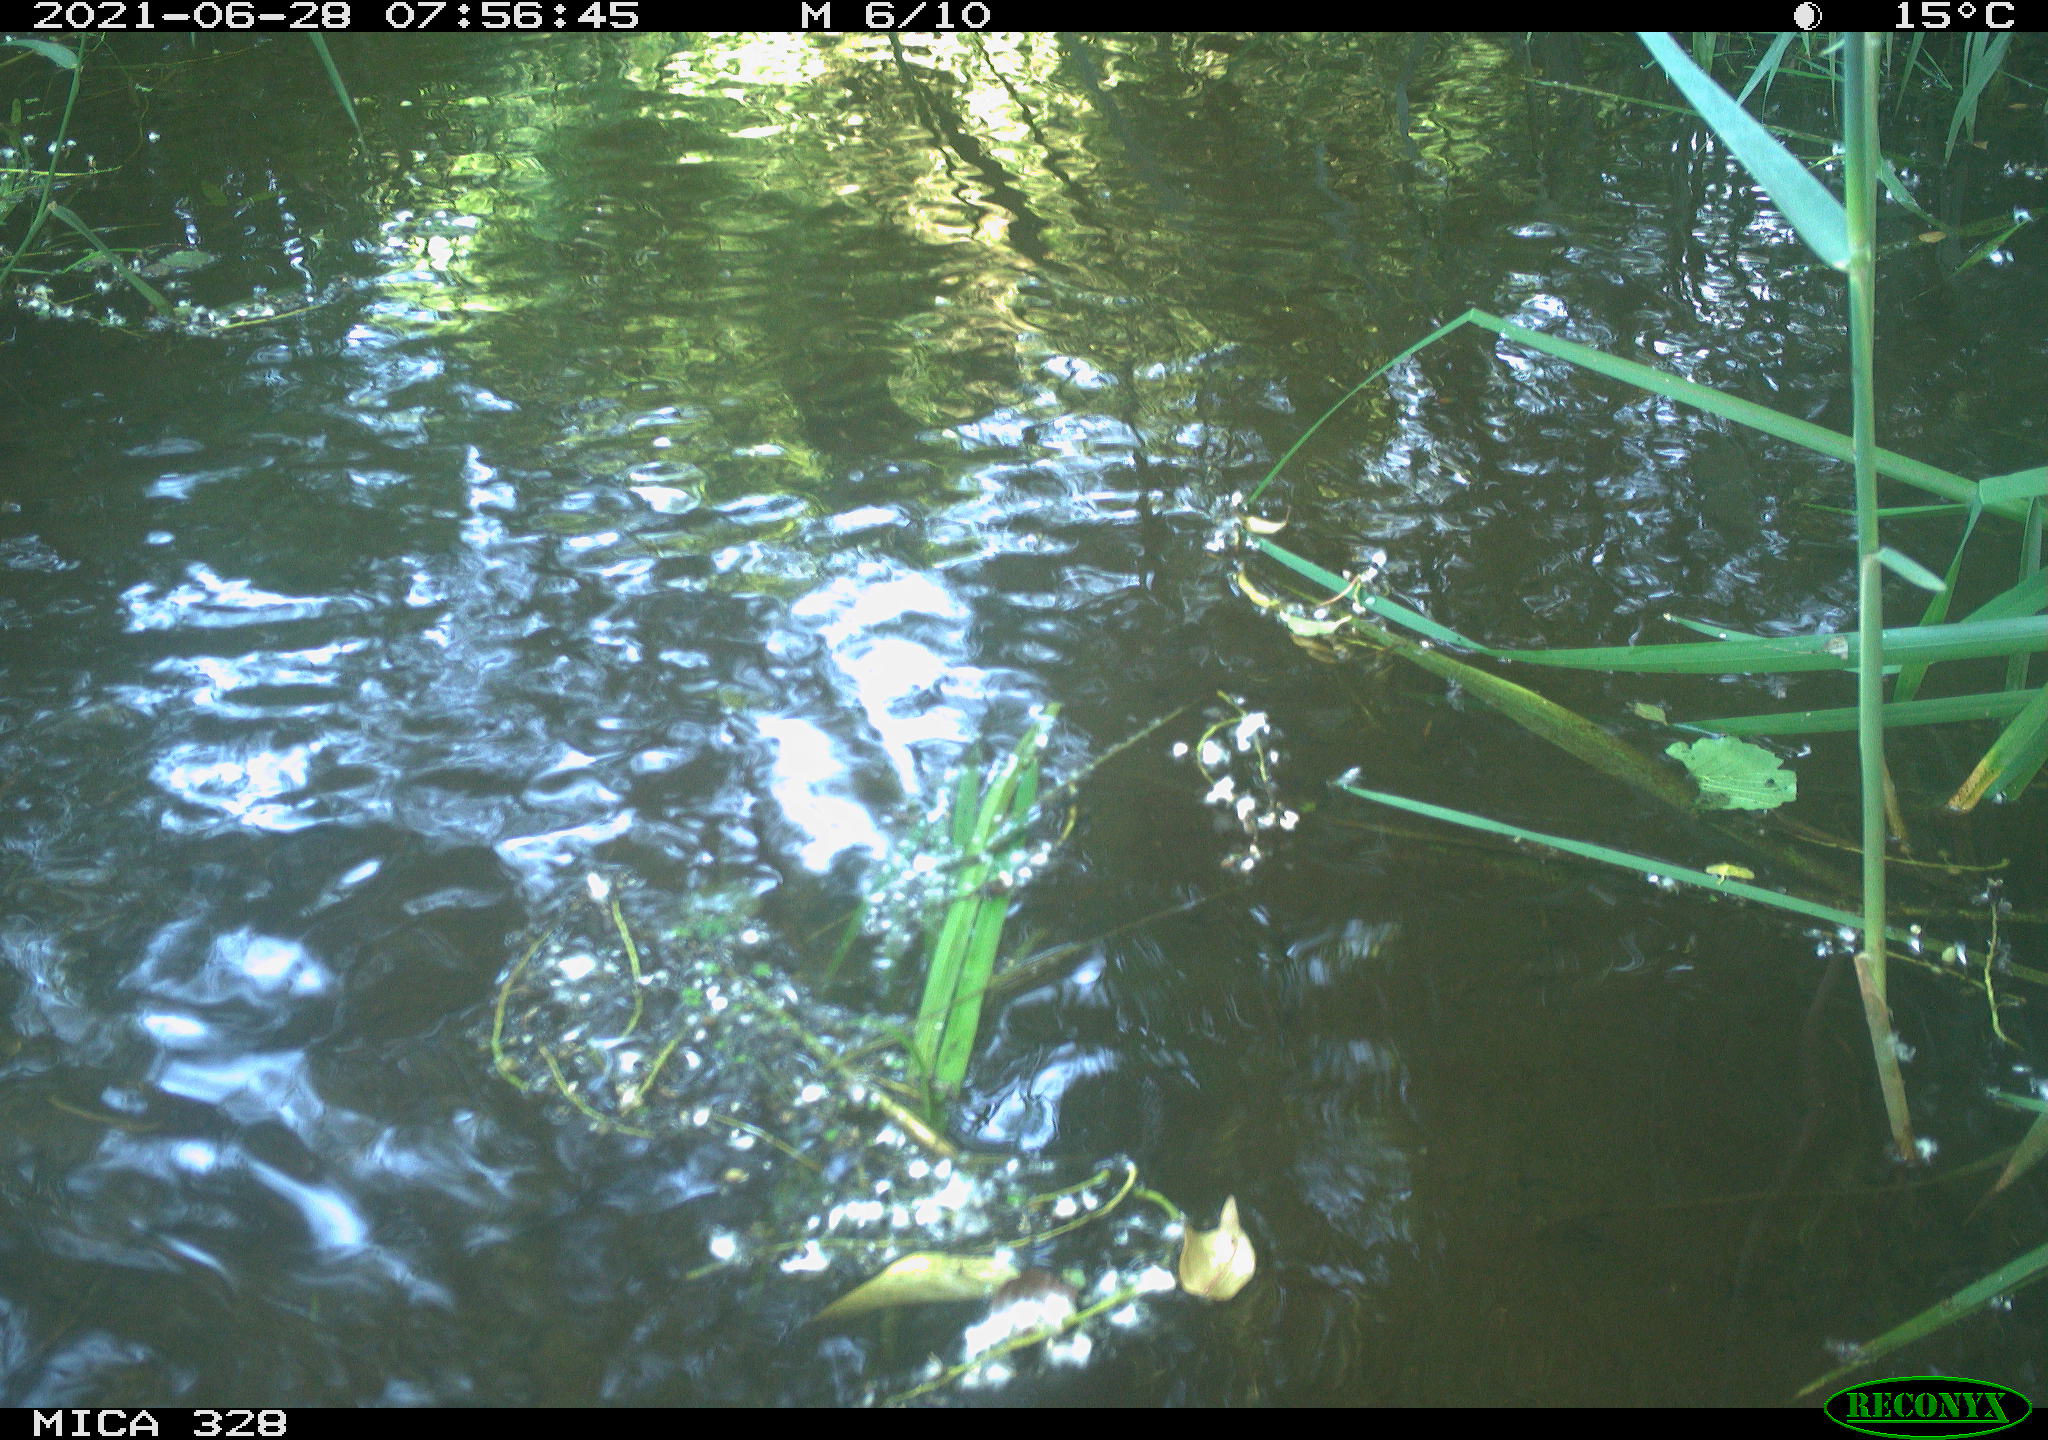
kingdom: Animalia
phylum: Chordata
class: Aves
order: Anseriformes
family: Anatidae
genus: Aix
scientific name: Aix galericulata
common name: Mandarin duck
